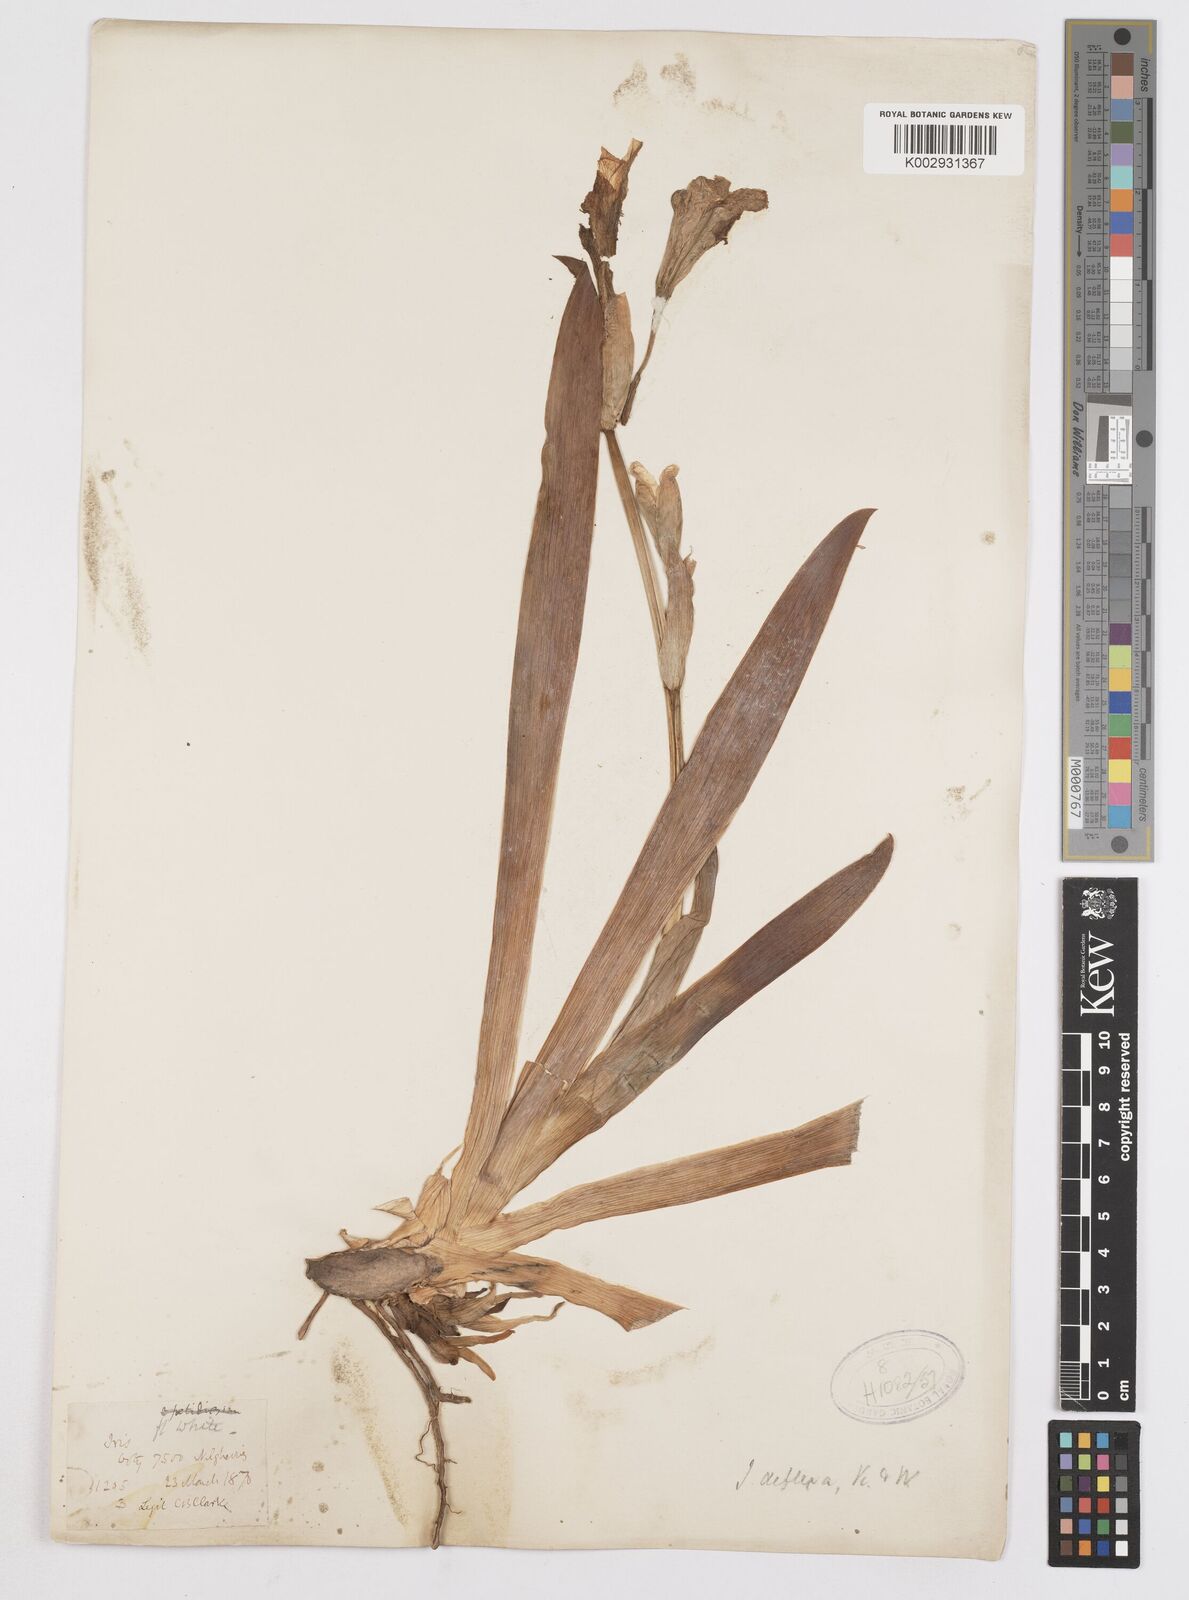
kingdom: Plantae
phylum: Tracheophyta
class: Liliopsida
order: Asparagales
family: Iridaceae
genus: Iris
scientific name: Iris halophila
